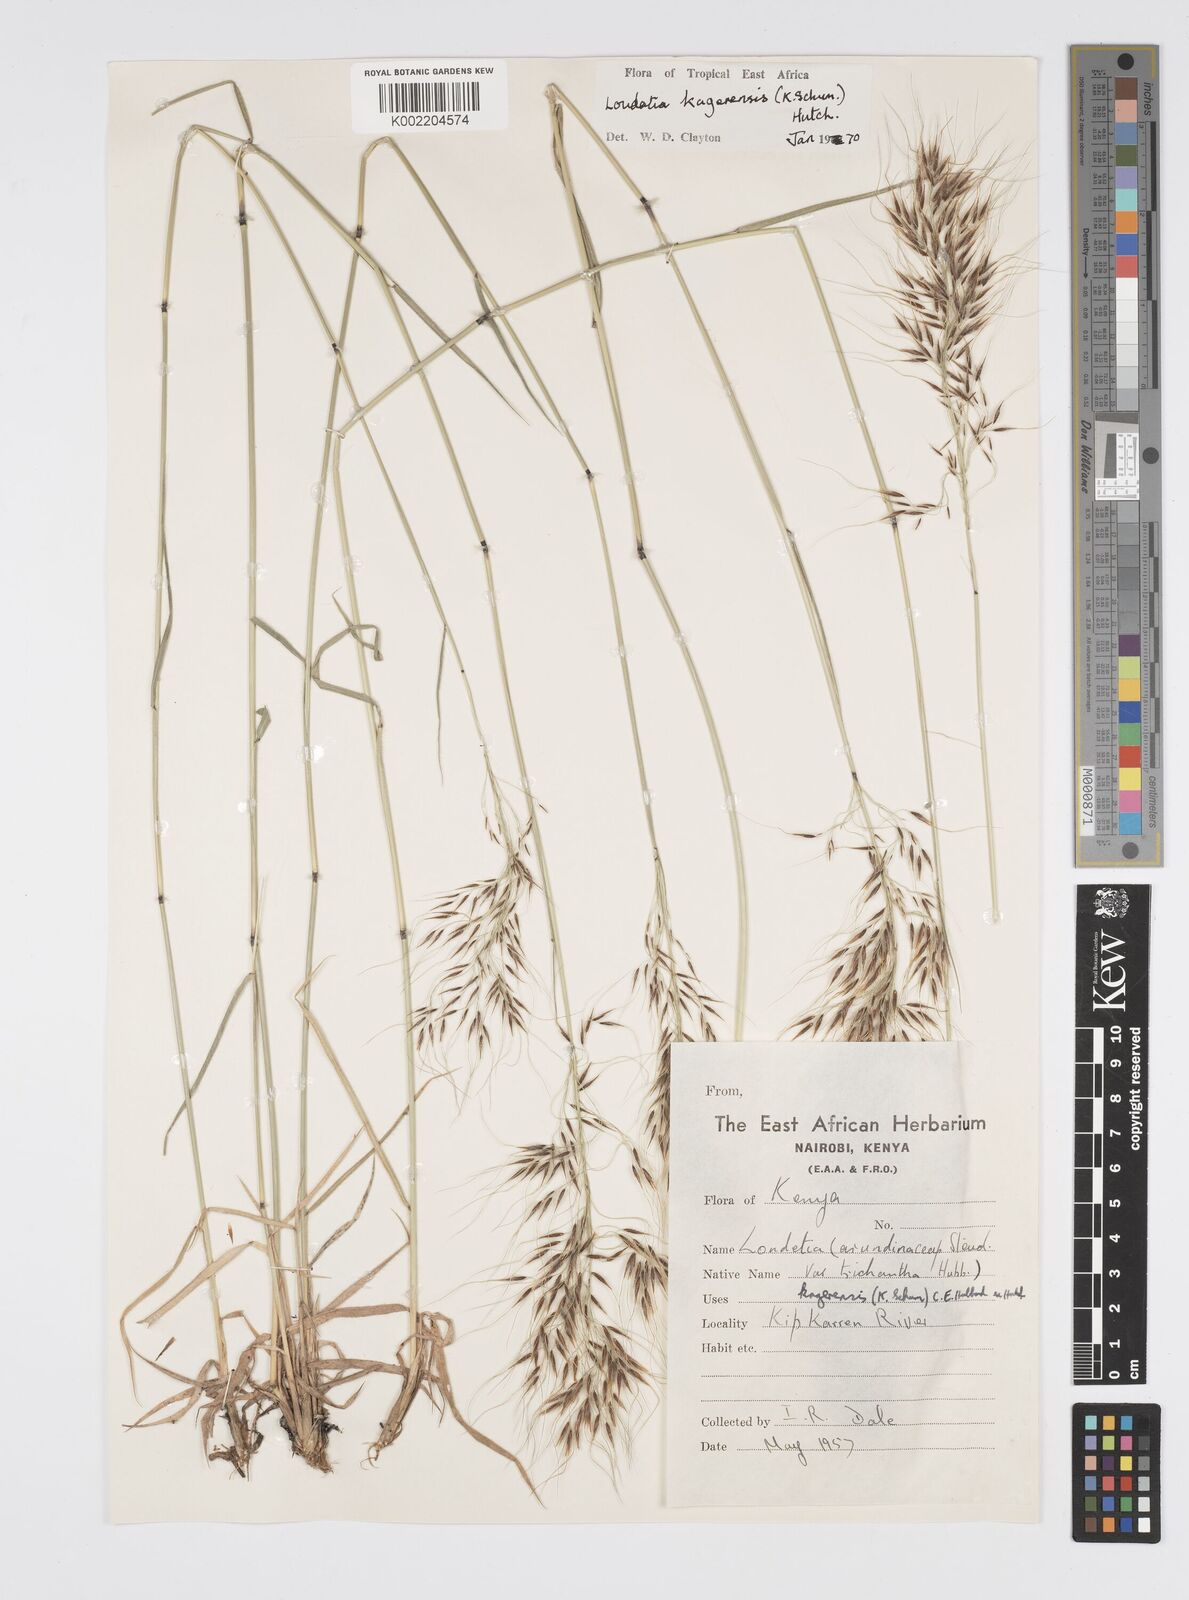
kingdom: Plantae
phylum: Tracheophyta
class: Liliopsida
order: Poales
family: Poaceae
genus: Loudetia
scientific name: Loudetia kagerensis
